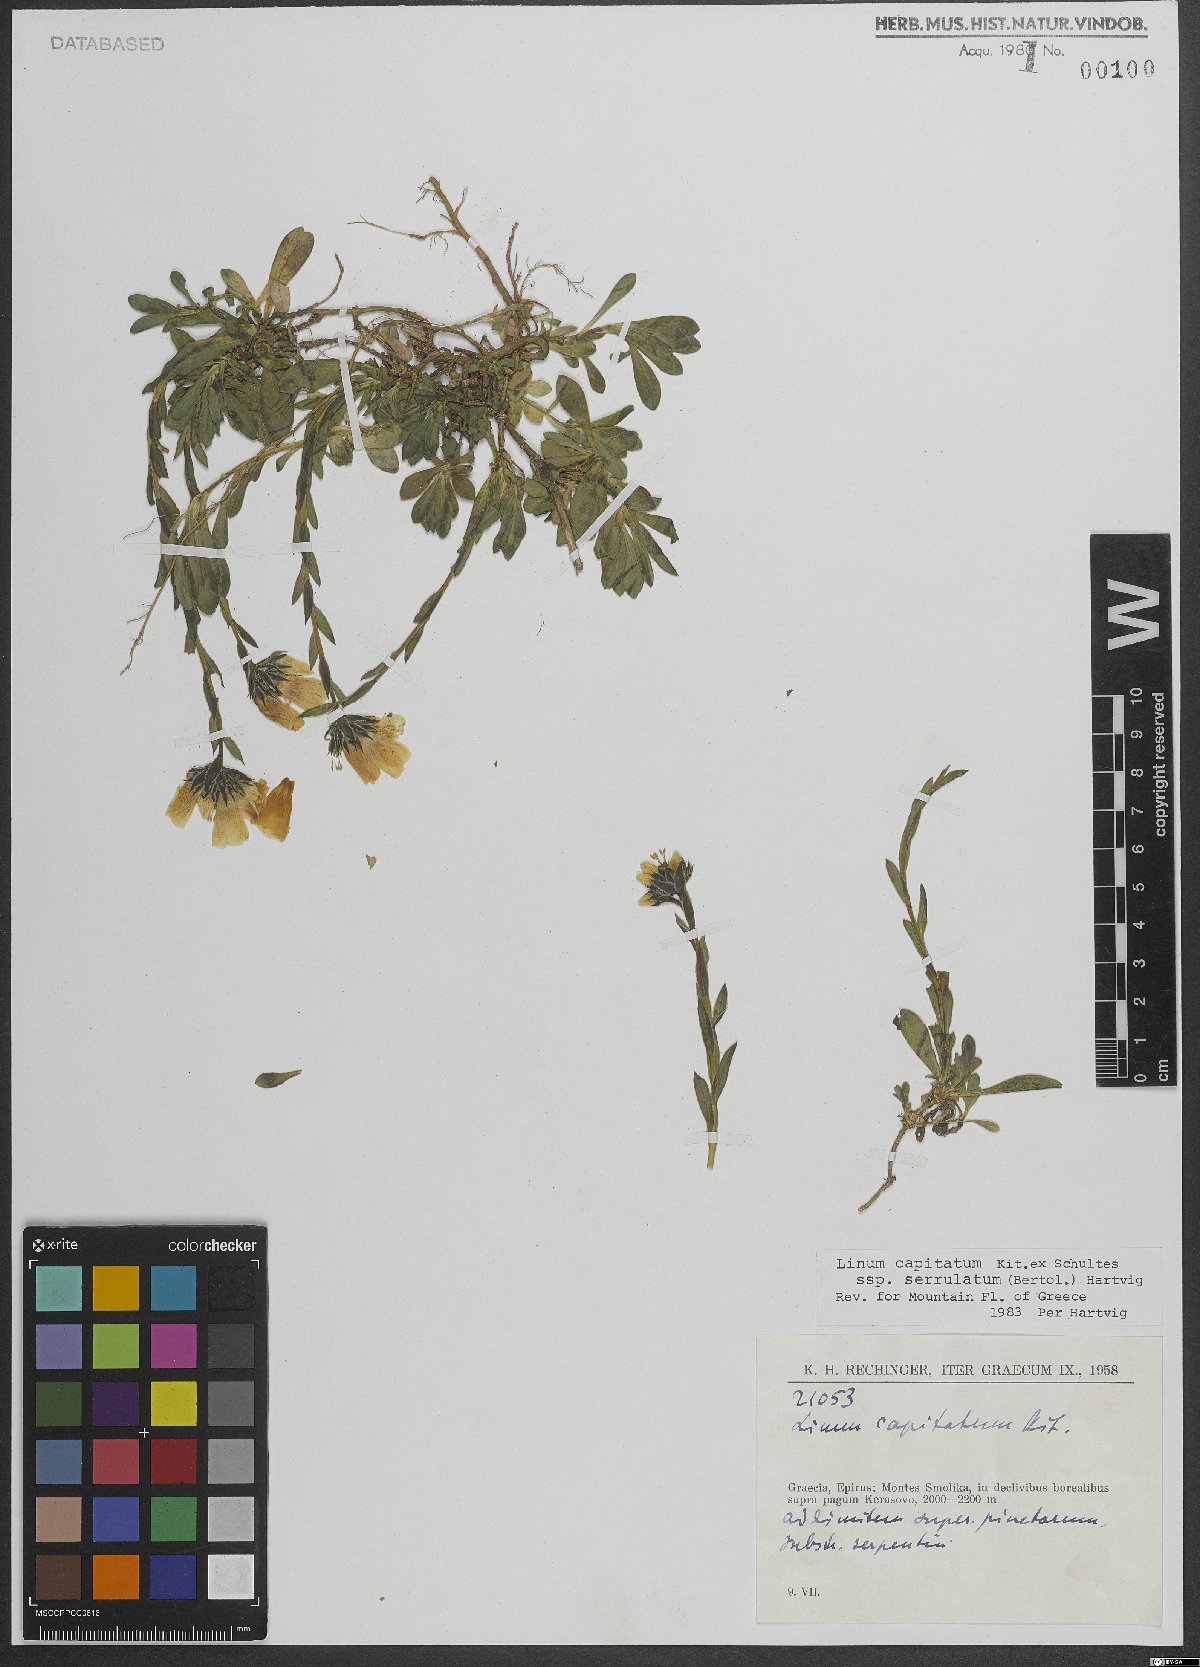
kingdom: Plantae
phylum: Tracheophyta
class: Magnoliopsida
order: Malpighiales
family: Linaceae
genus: Linum
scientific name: Linum capitatum
